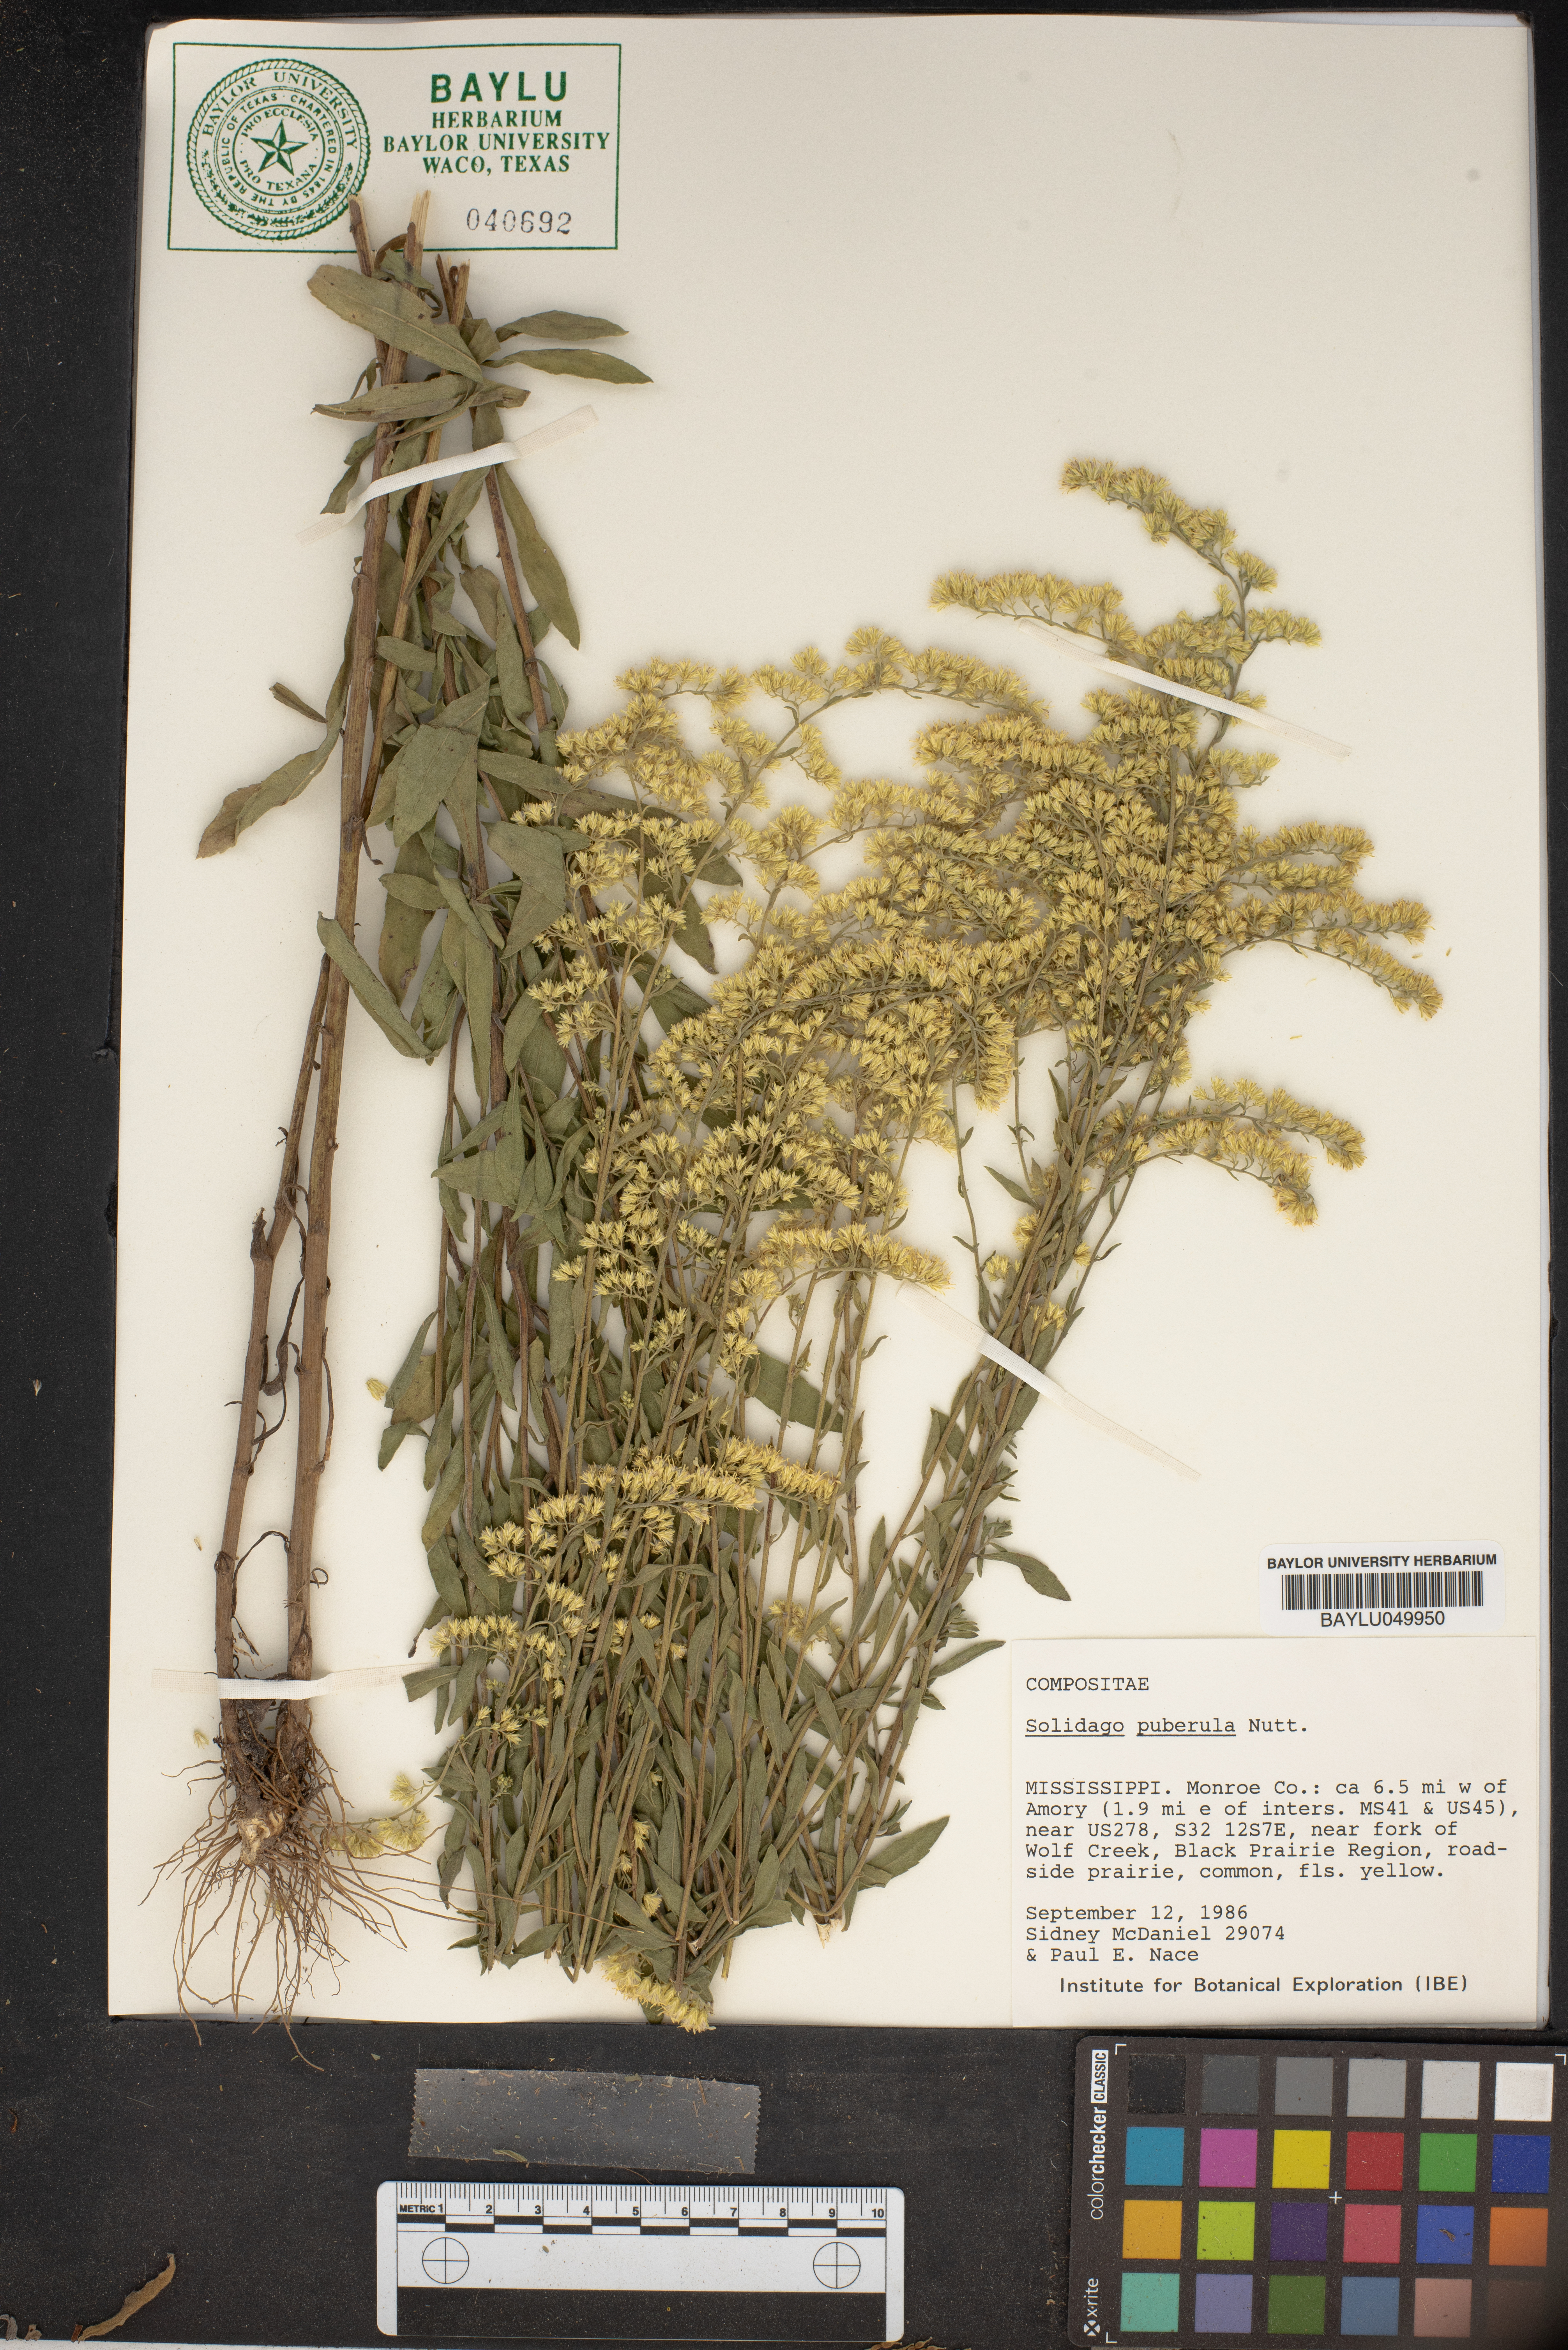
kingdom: Plantae
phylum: Tracheophyta
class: Magnoliopsida
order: Asterales
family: Asteraceae
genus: Solidago
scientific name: Solidago puberula
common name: Downy goldenrod
